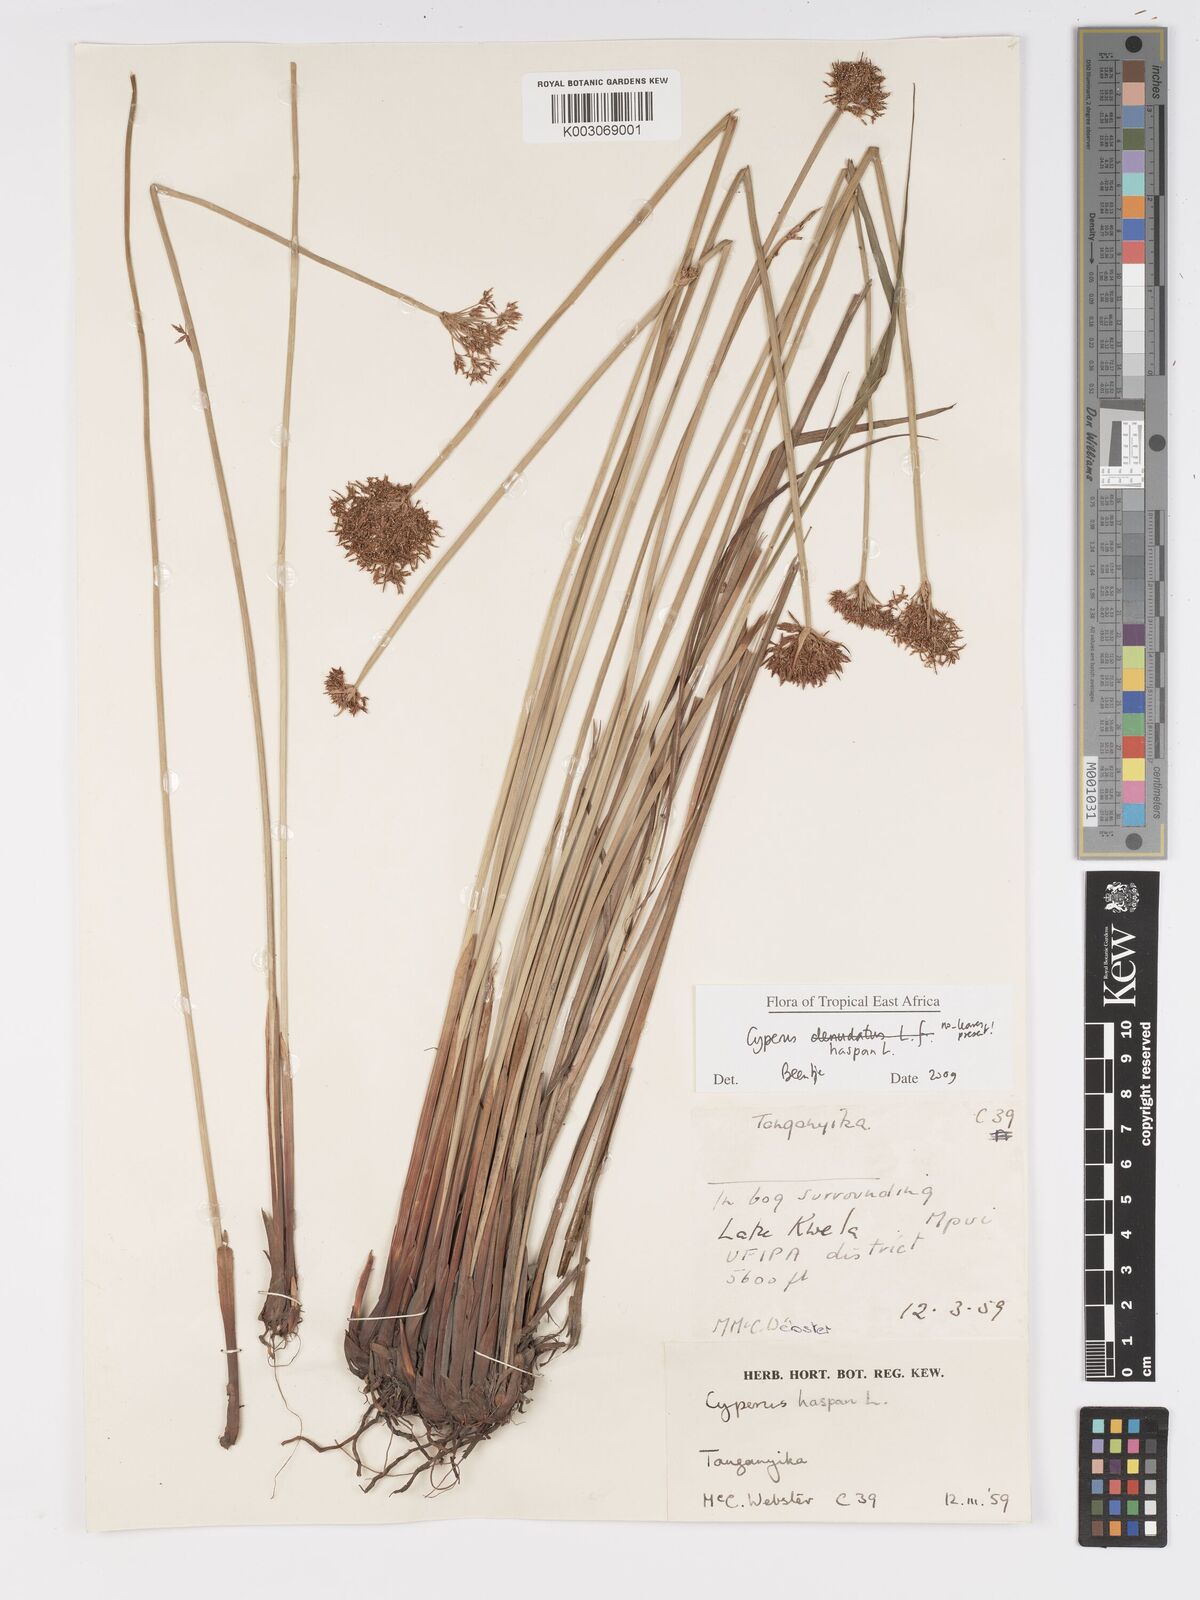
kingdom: Plantae
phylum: Tracheophyta
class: Liliopsida
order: Poales
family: Cyperaceae
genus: Cyperus
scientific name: Cyperus platycaulis
